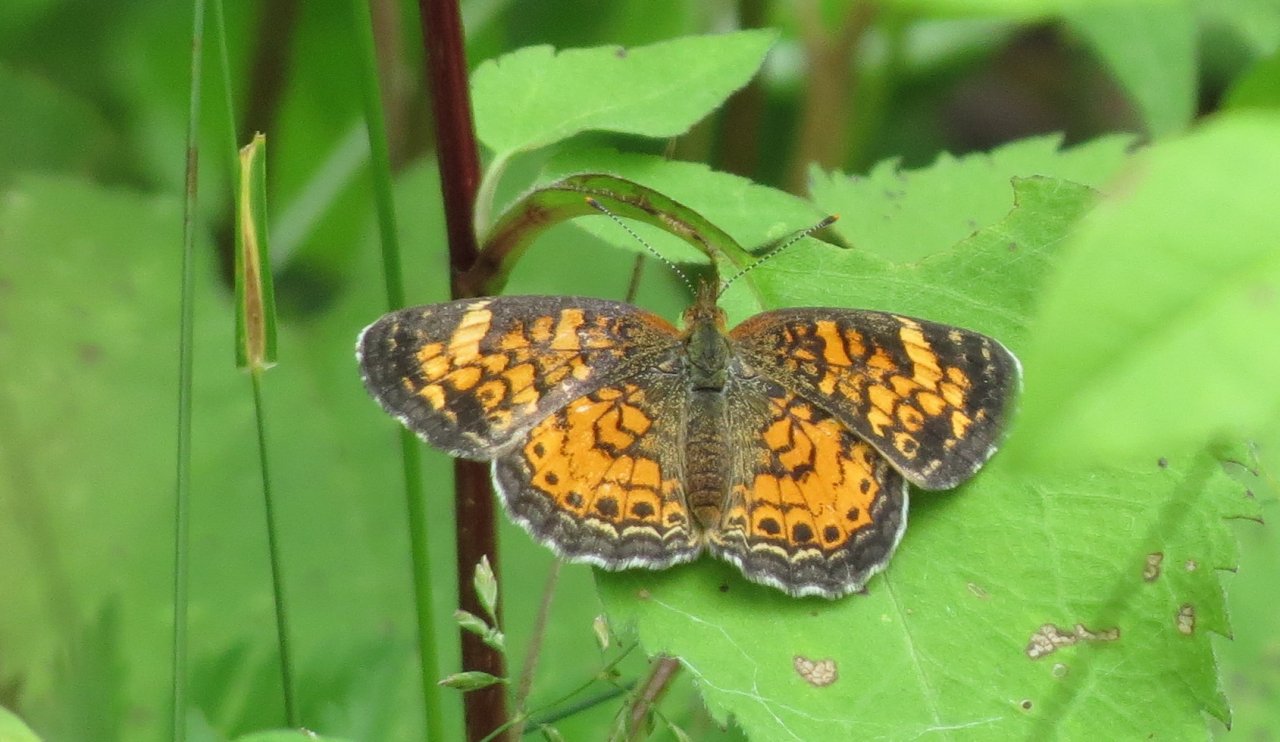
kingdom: Animalia
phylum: Arthropoda
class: Insecta
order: Lepidoptera
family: Nymphalidae
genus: Phyciodes
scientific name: Phyciodes tharos
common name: Northern Crescent
